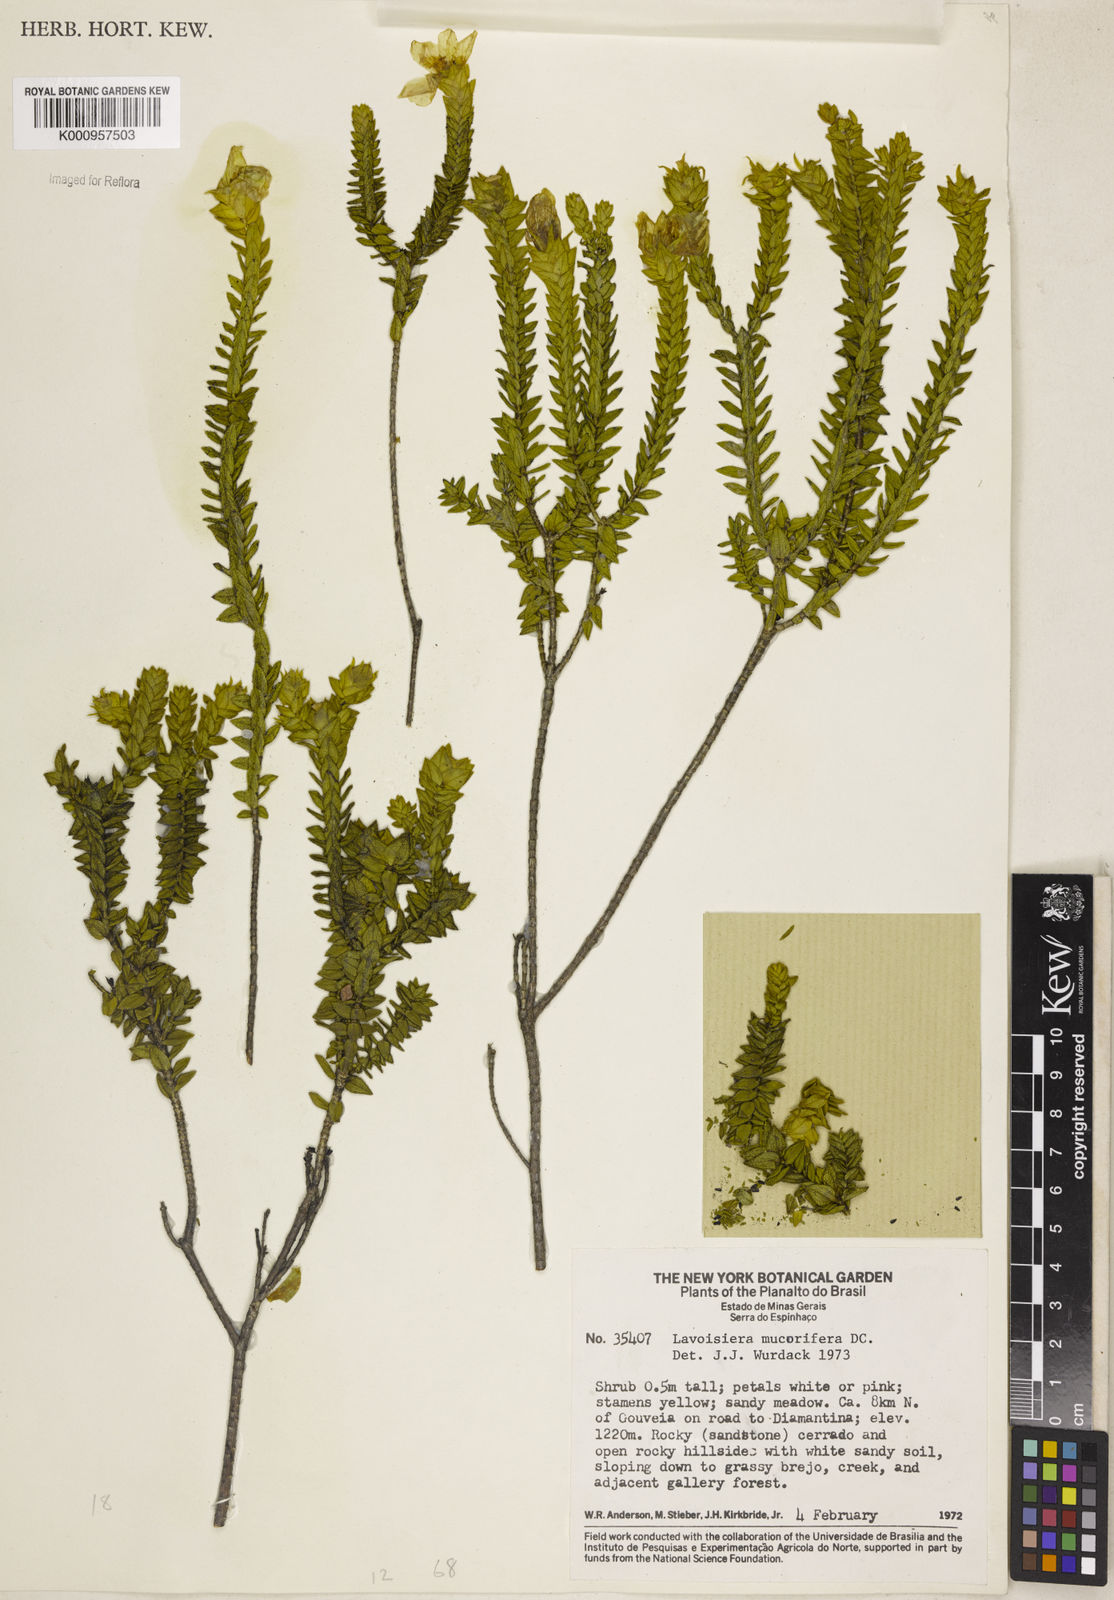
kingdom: Plantae
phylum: Tracheophyta
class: Magnoliopsida
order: Myrtales
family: Melastomataceae
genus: Microlicia
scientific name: Microlicia mucorifera
